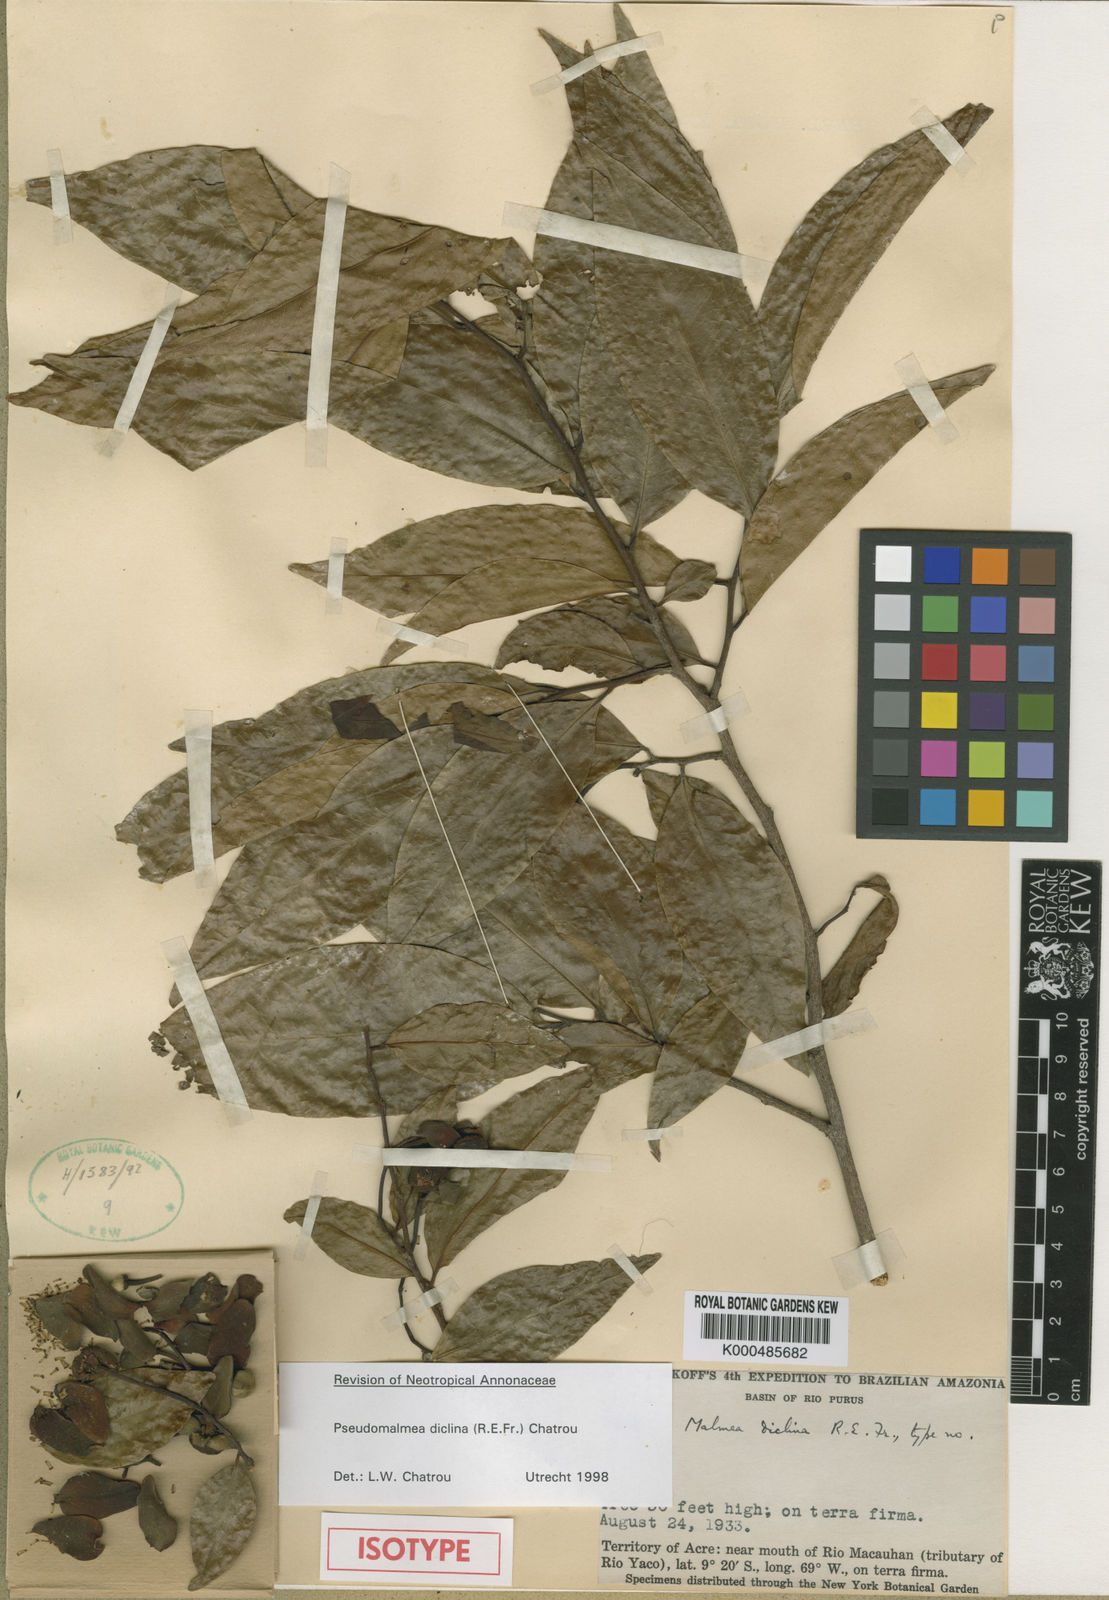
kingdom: Plantae
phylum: Tracheophyta
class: Magnoliopsida
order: Magnoliales
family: Annonaceae
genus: Pseudomalmea
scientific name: Pseudomalmea diclina
